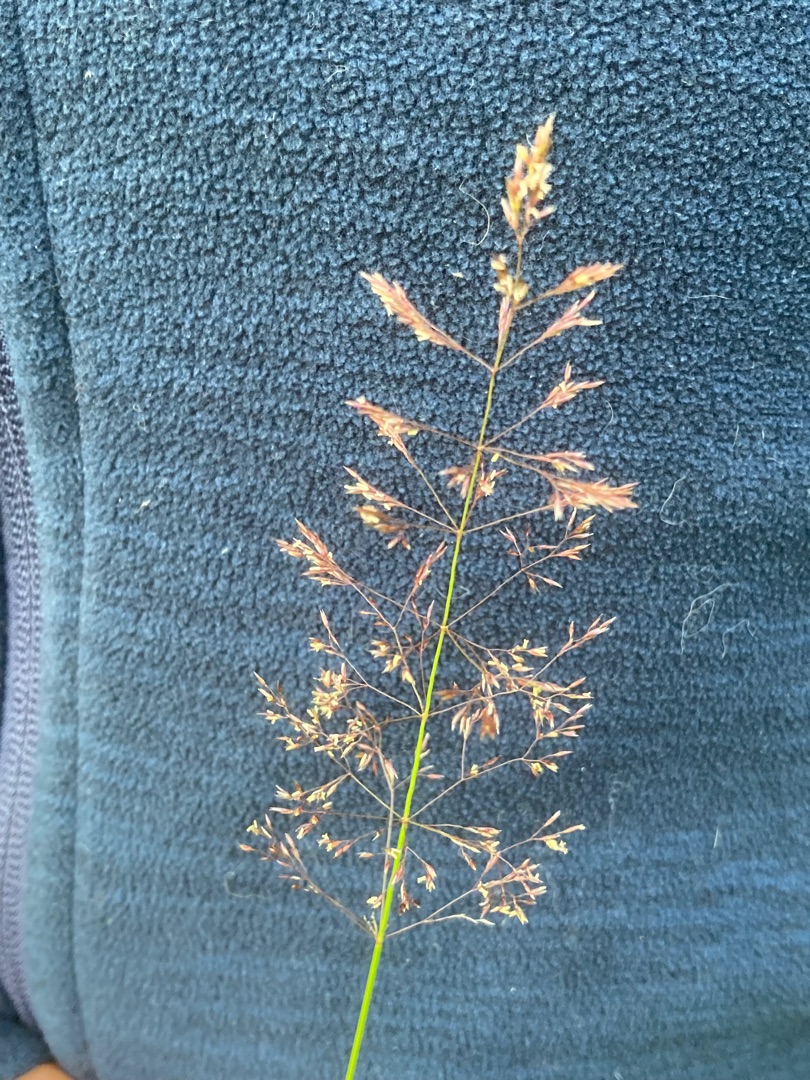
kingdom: Plantae
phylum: Tracheophyta
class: Liliopsida
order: Poales
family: Poaceae
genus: Agrostis
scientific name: Agrostis capillaris
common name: Almindelig hvene
